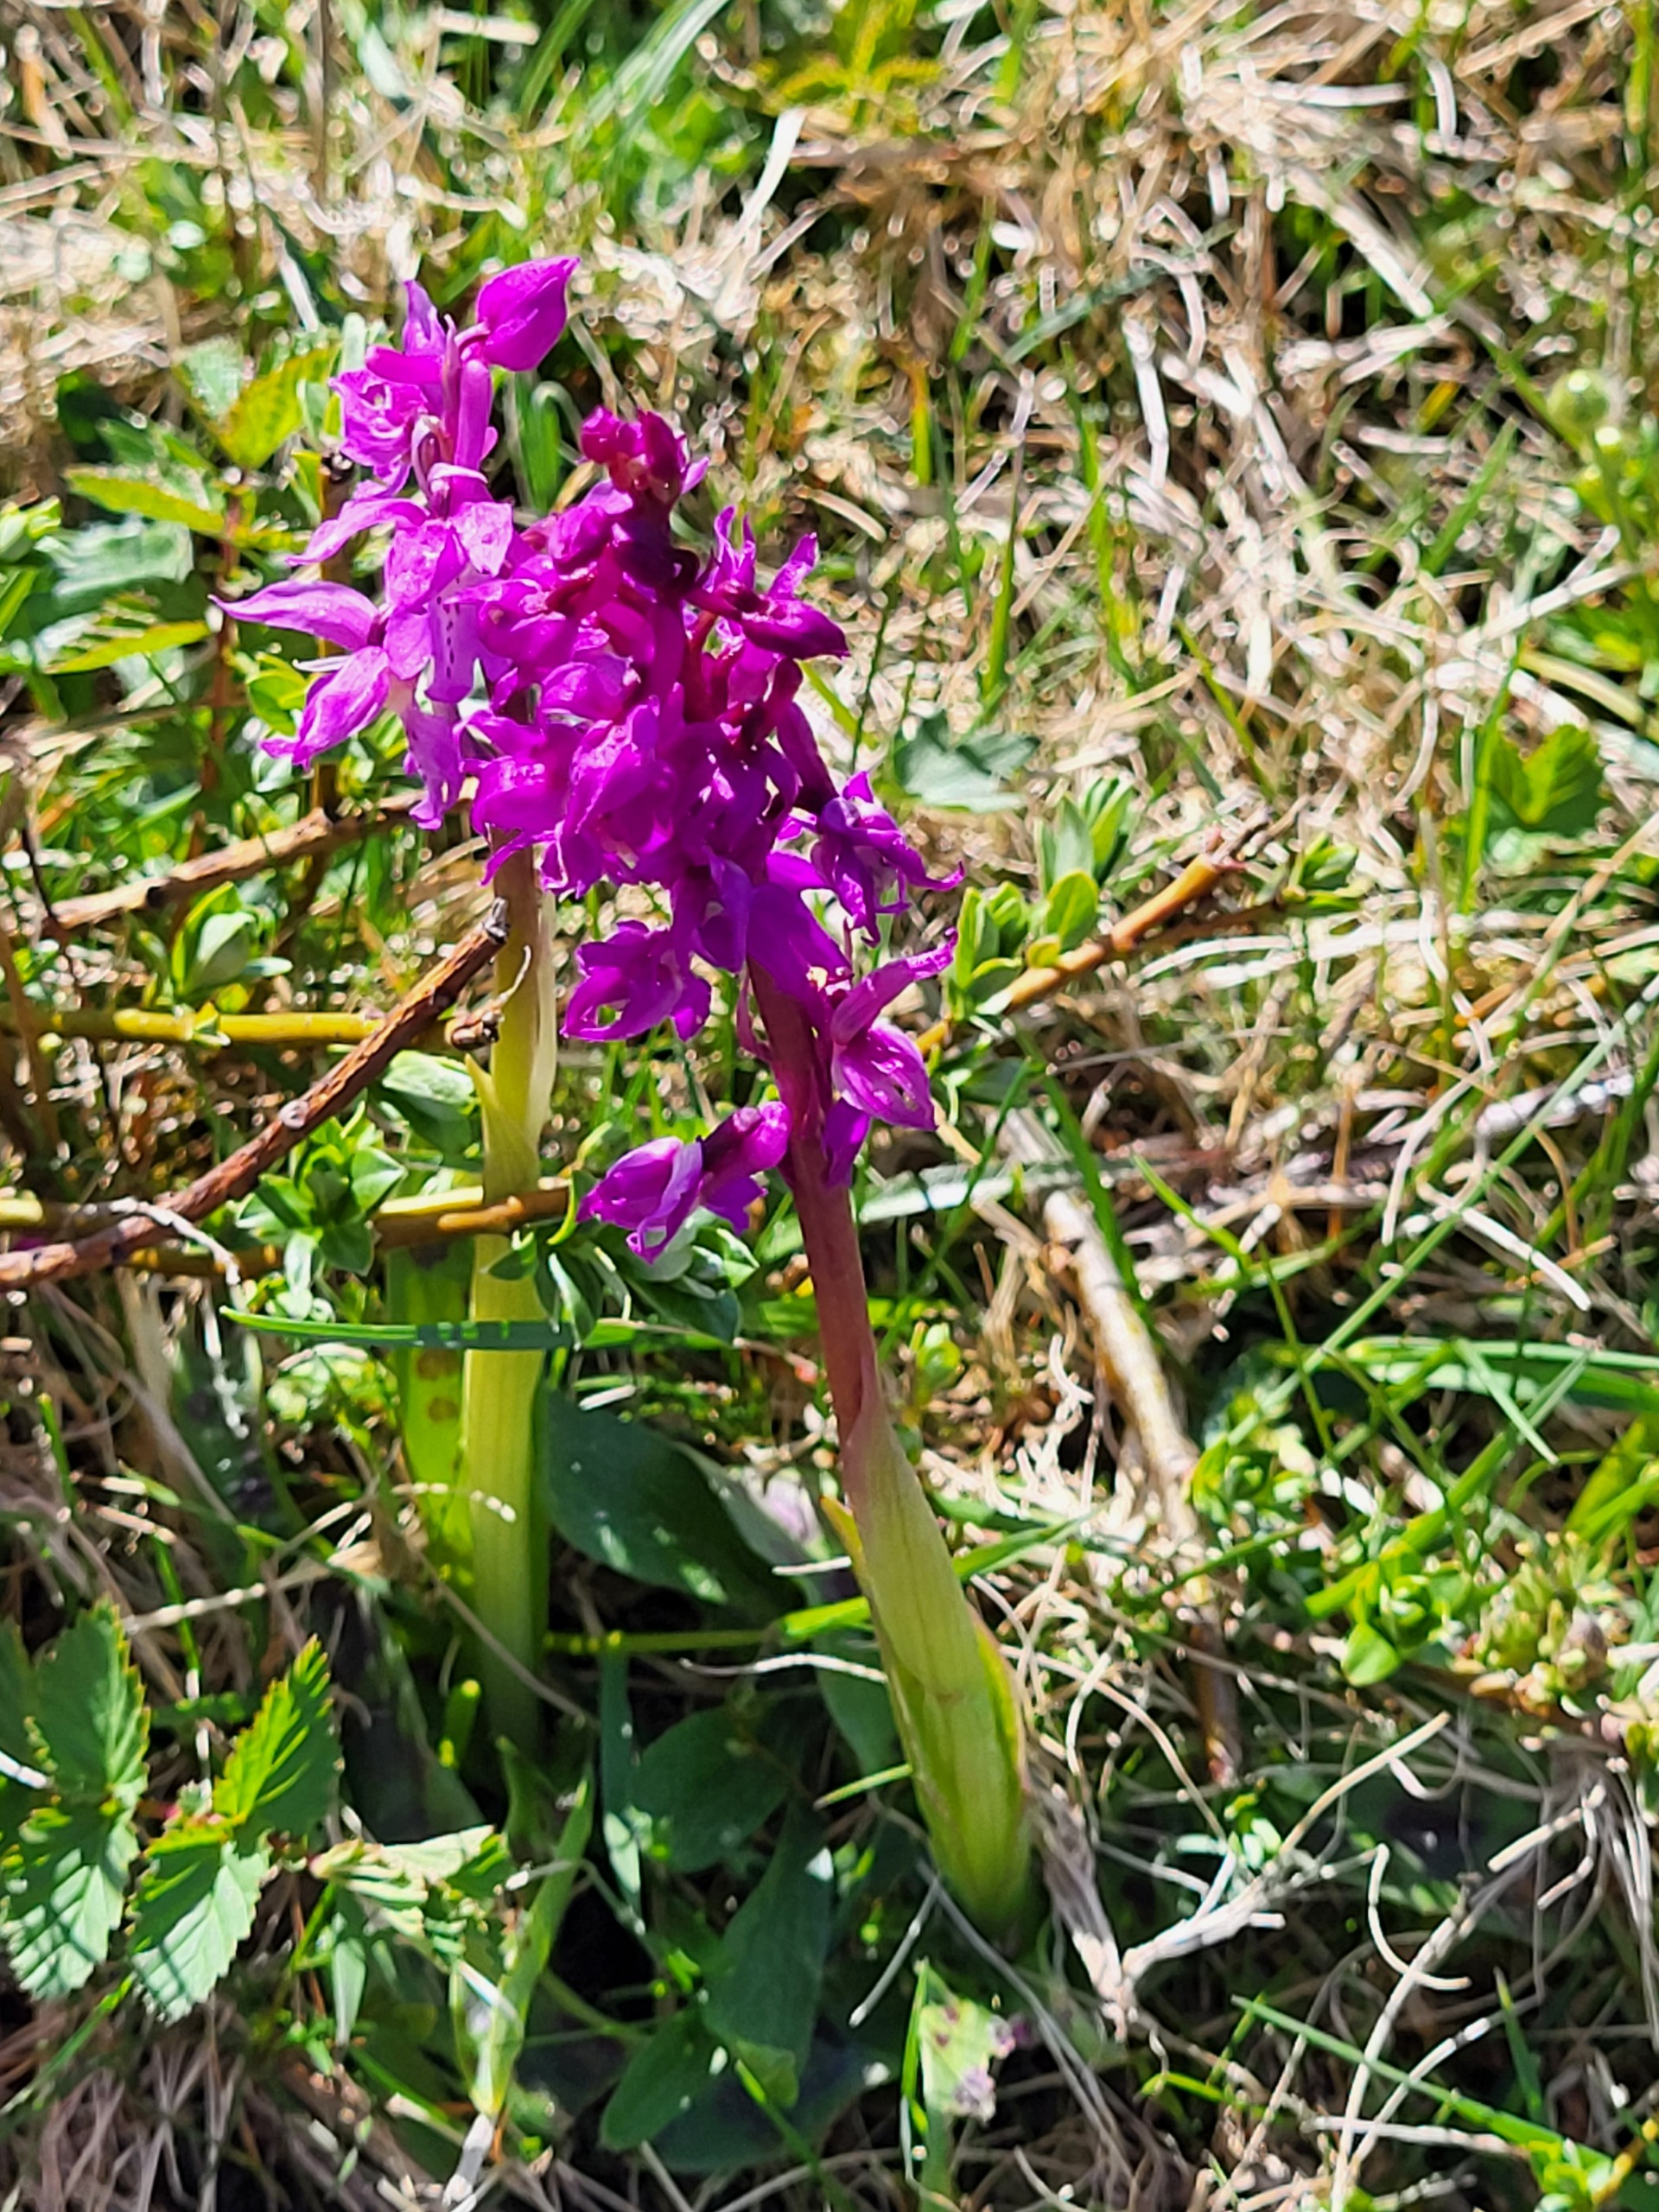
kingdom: Plantae
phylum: Tracheophyta
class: Liliopsida
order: Asparagales
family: Orchidaceae
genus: Orchis
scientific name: Orchis mascula
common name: Tyndakset gøgeurt
